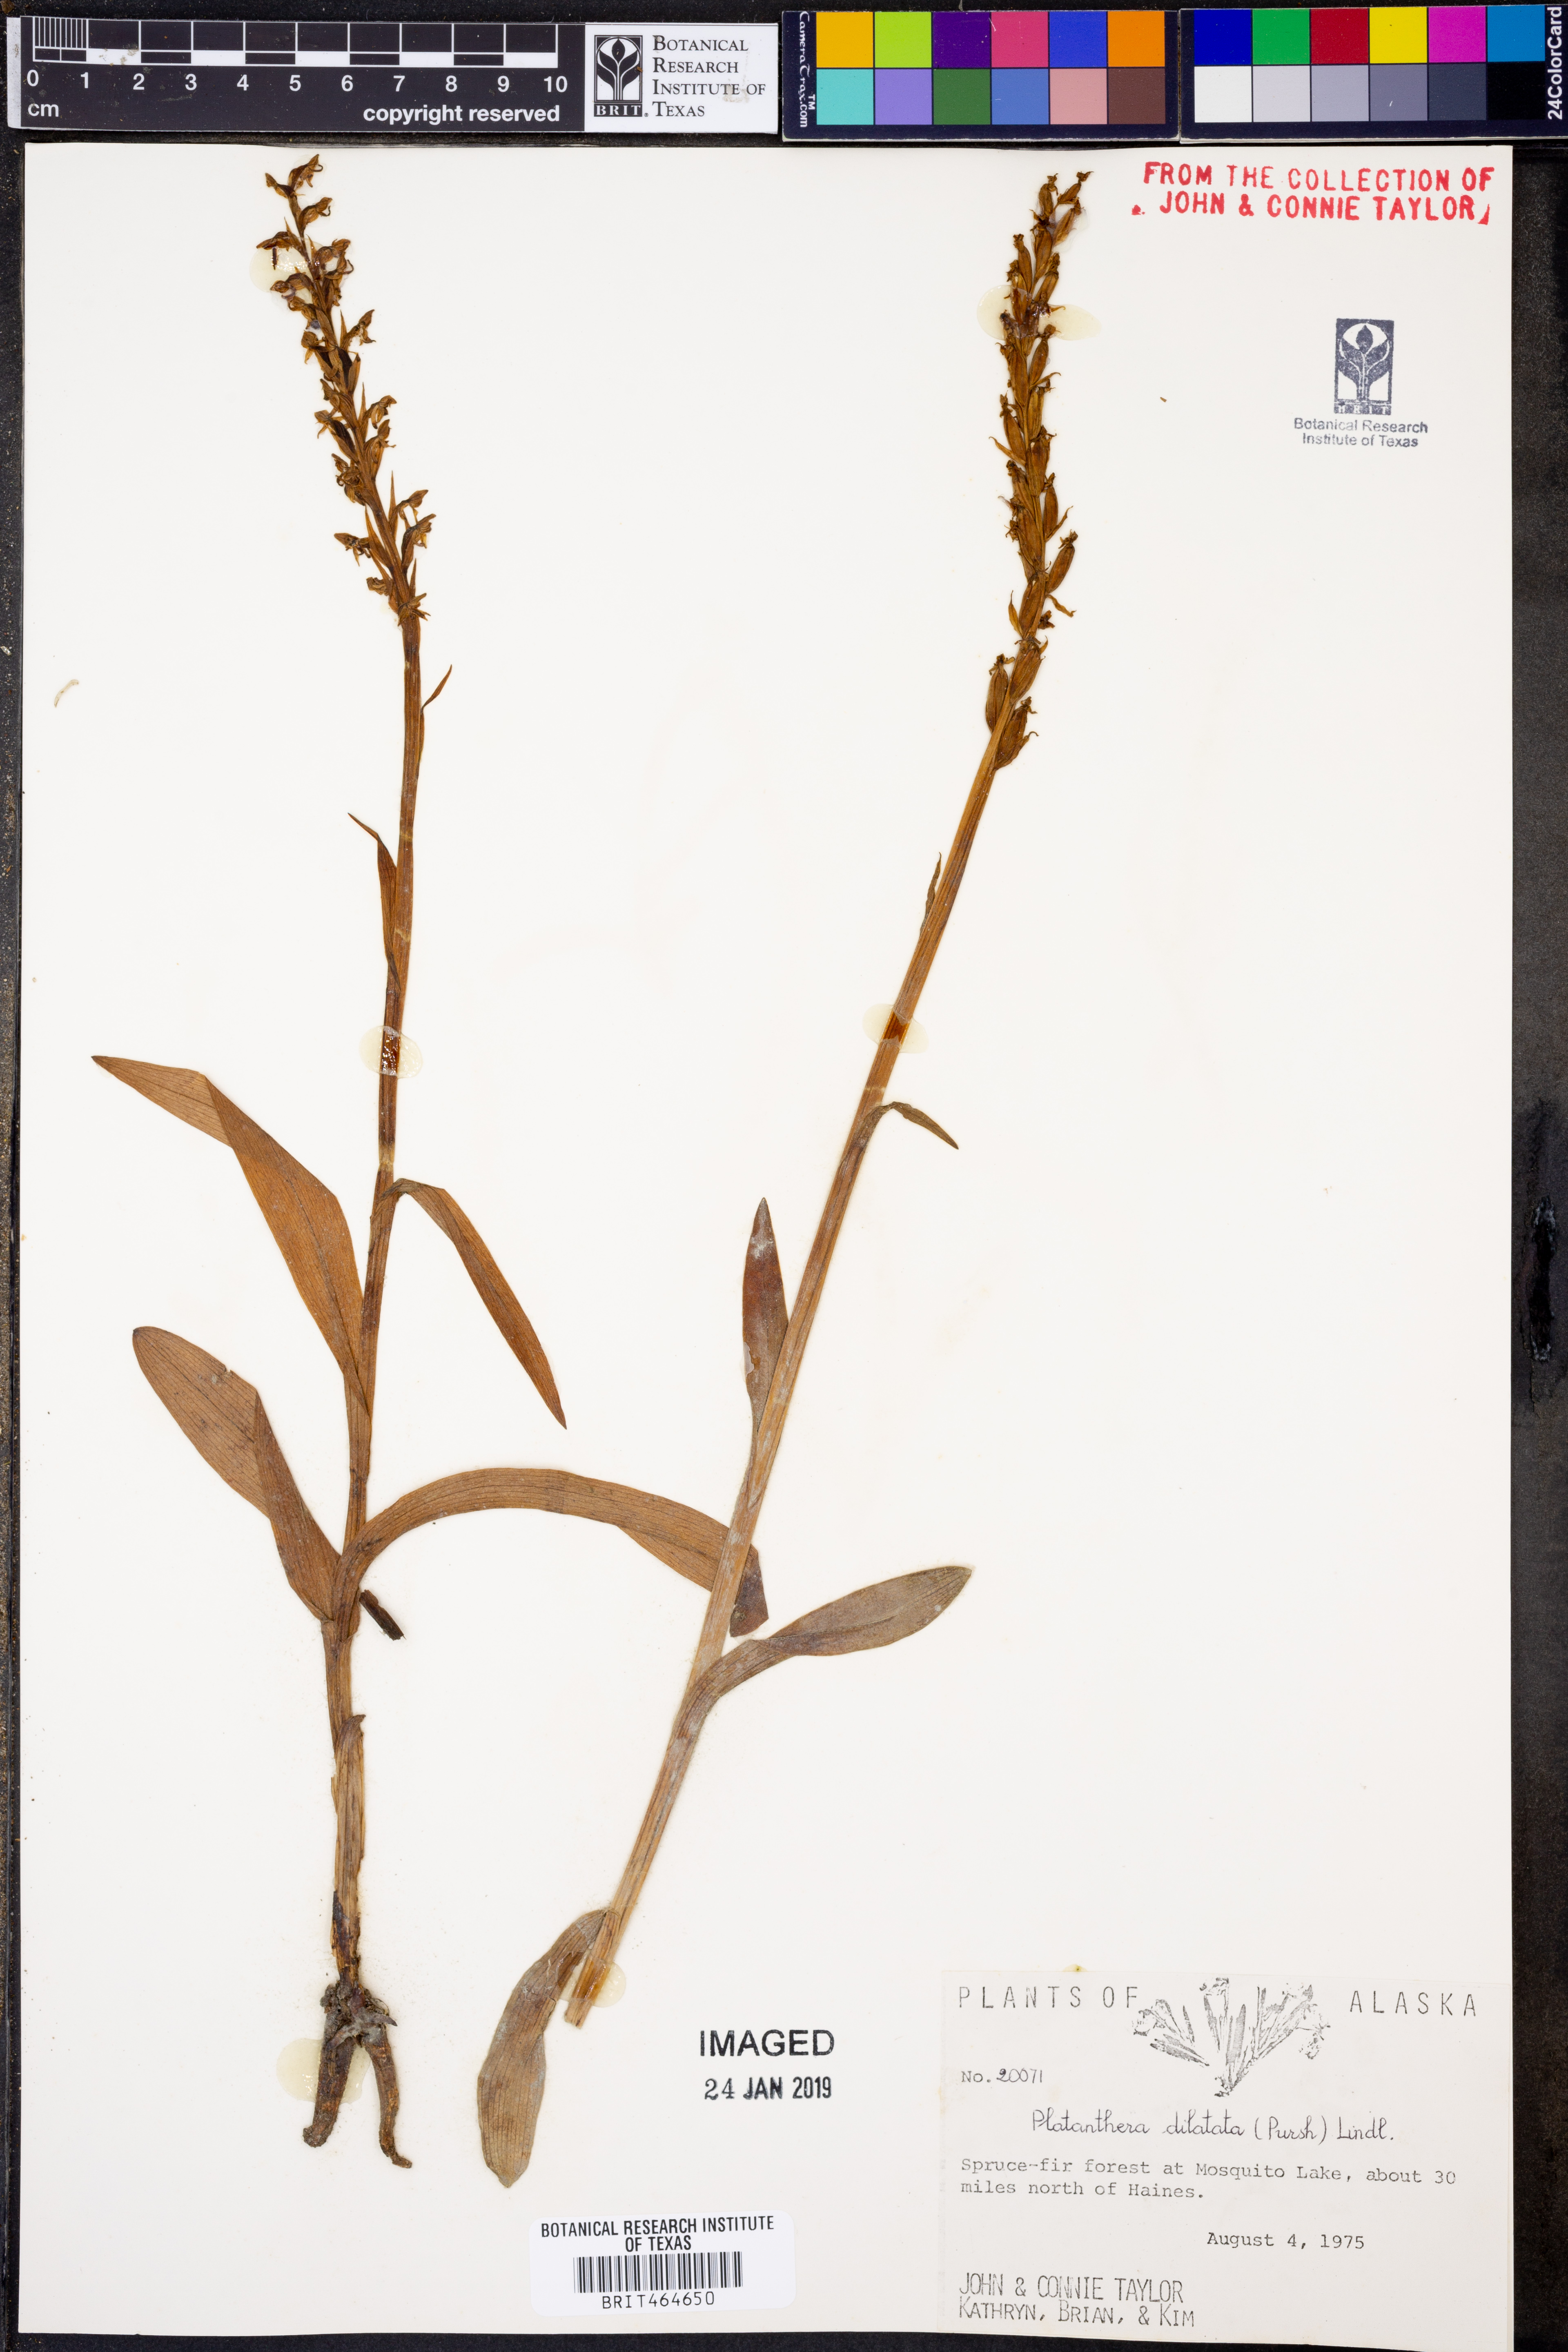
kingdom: Plantae
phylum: Tracheophyta
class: Liliopsida
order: Asparagales
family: Orchidaceae
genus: Platanthera
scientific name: Platanthera dilatata
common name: Bog candles
